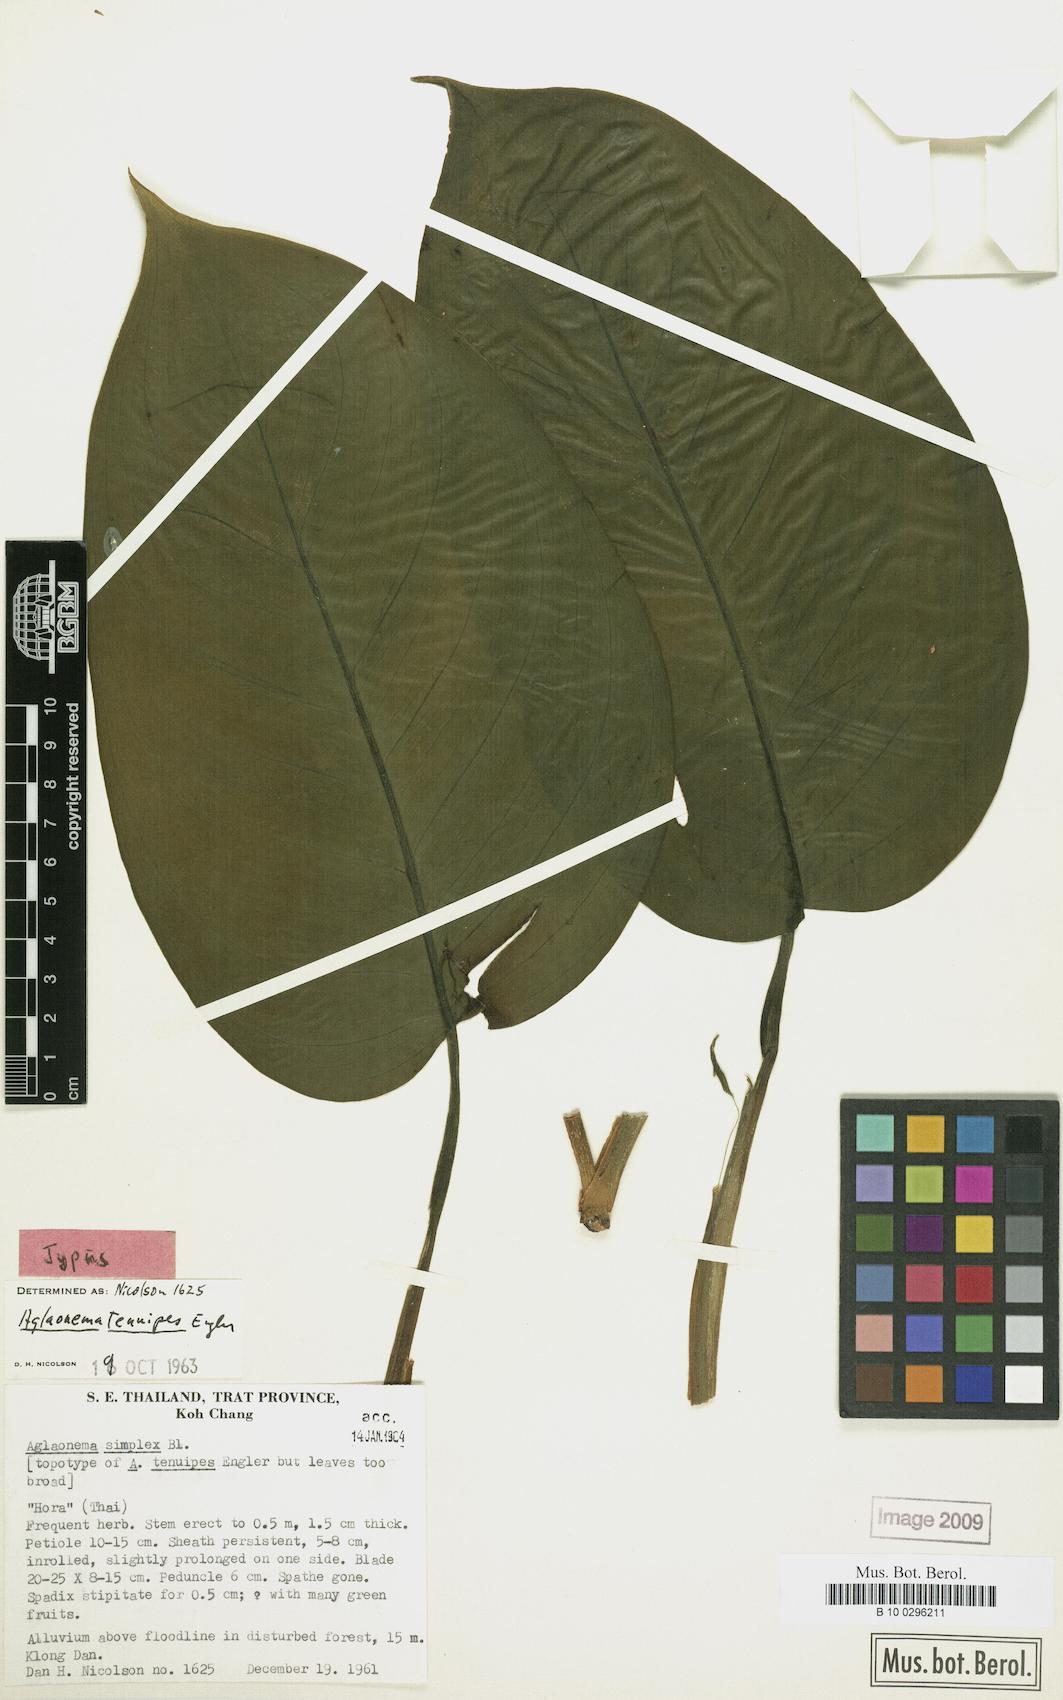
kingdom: Plantae
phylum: Tracheophyta
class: Liliopsida
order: Alismatales
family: Araceae
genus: Aglaonema
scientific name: Aglaonema simplex
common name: Malayan-sword
